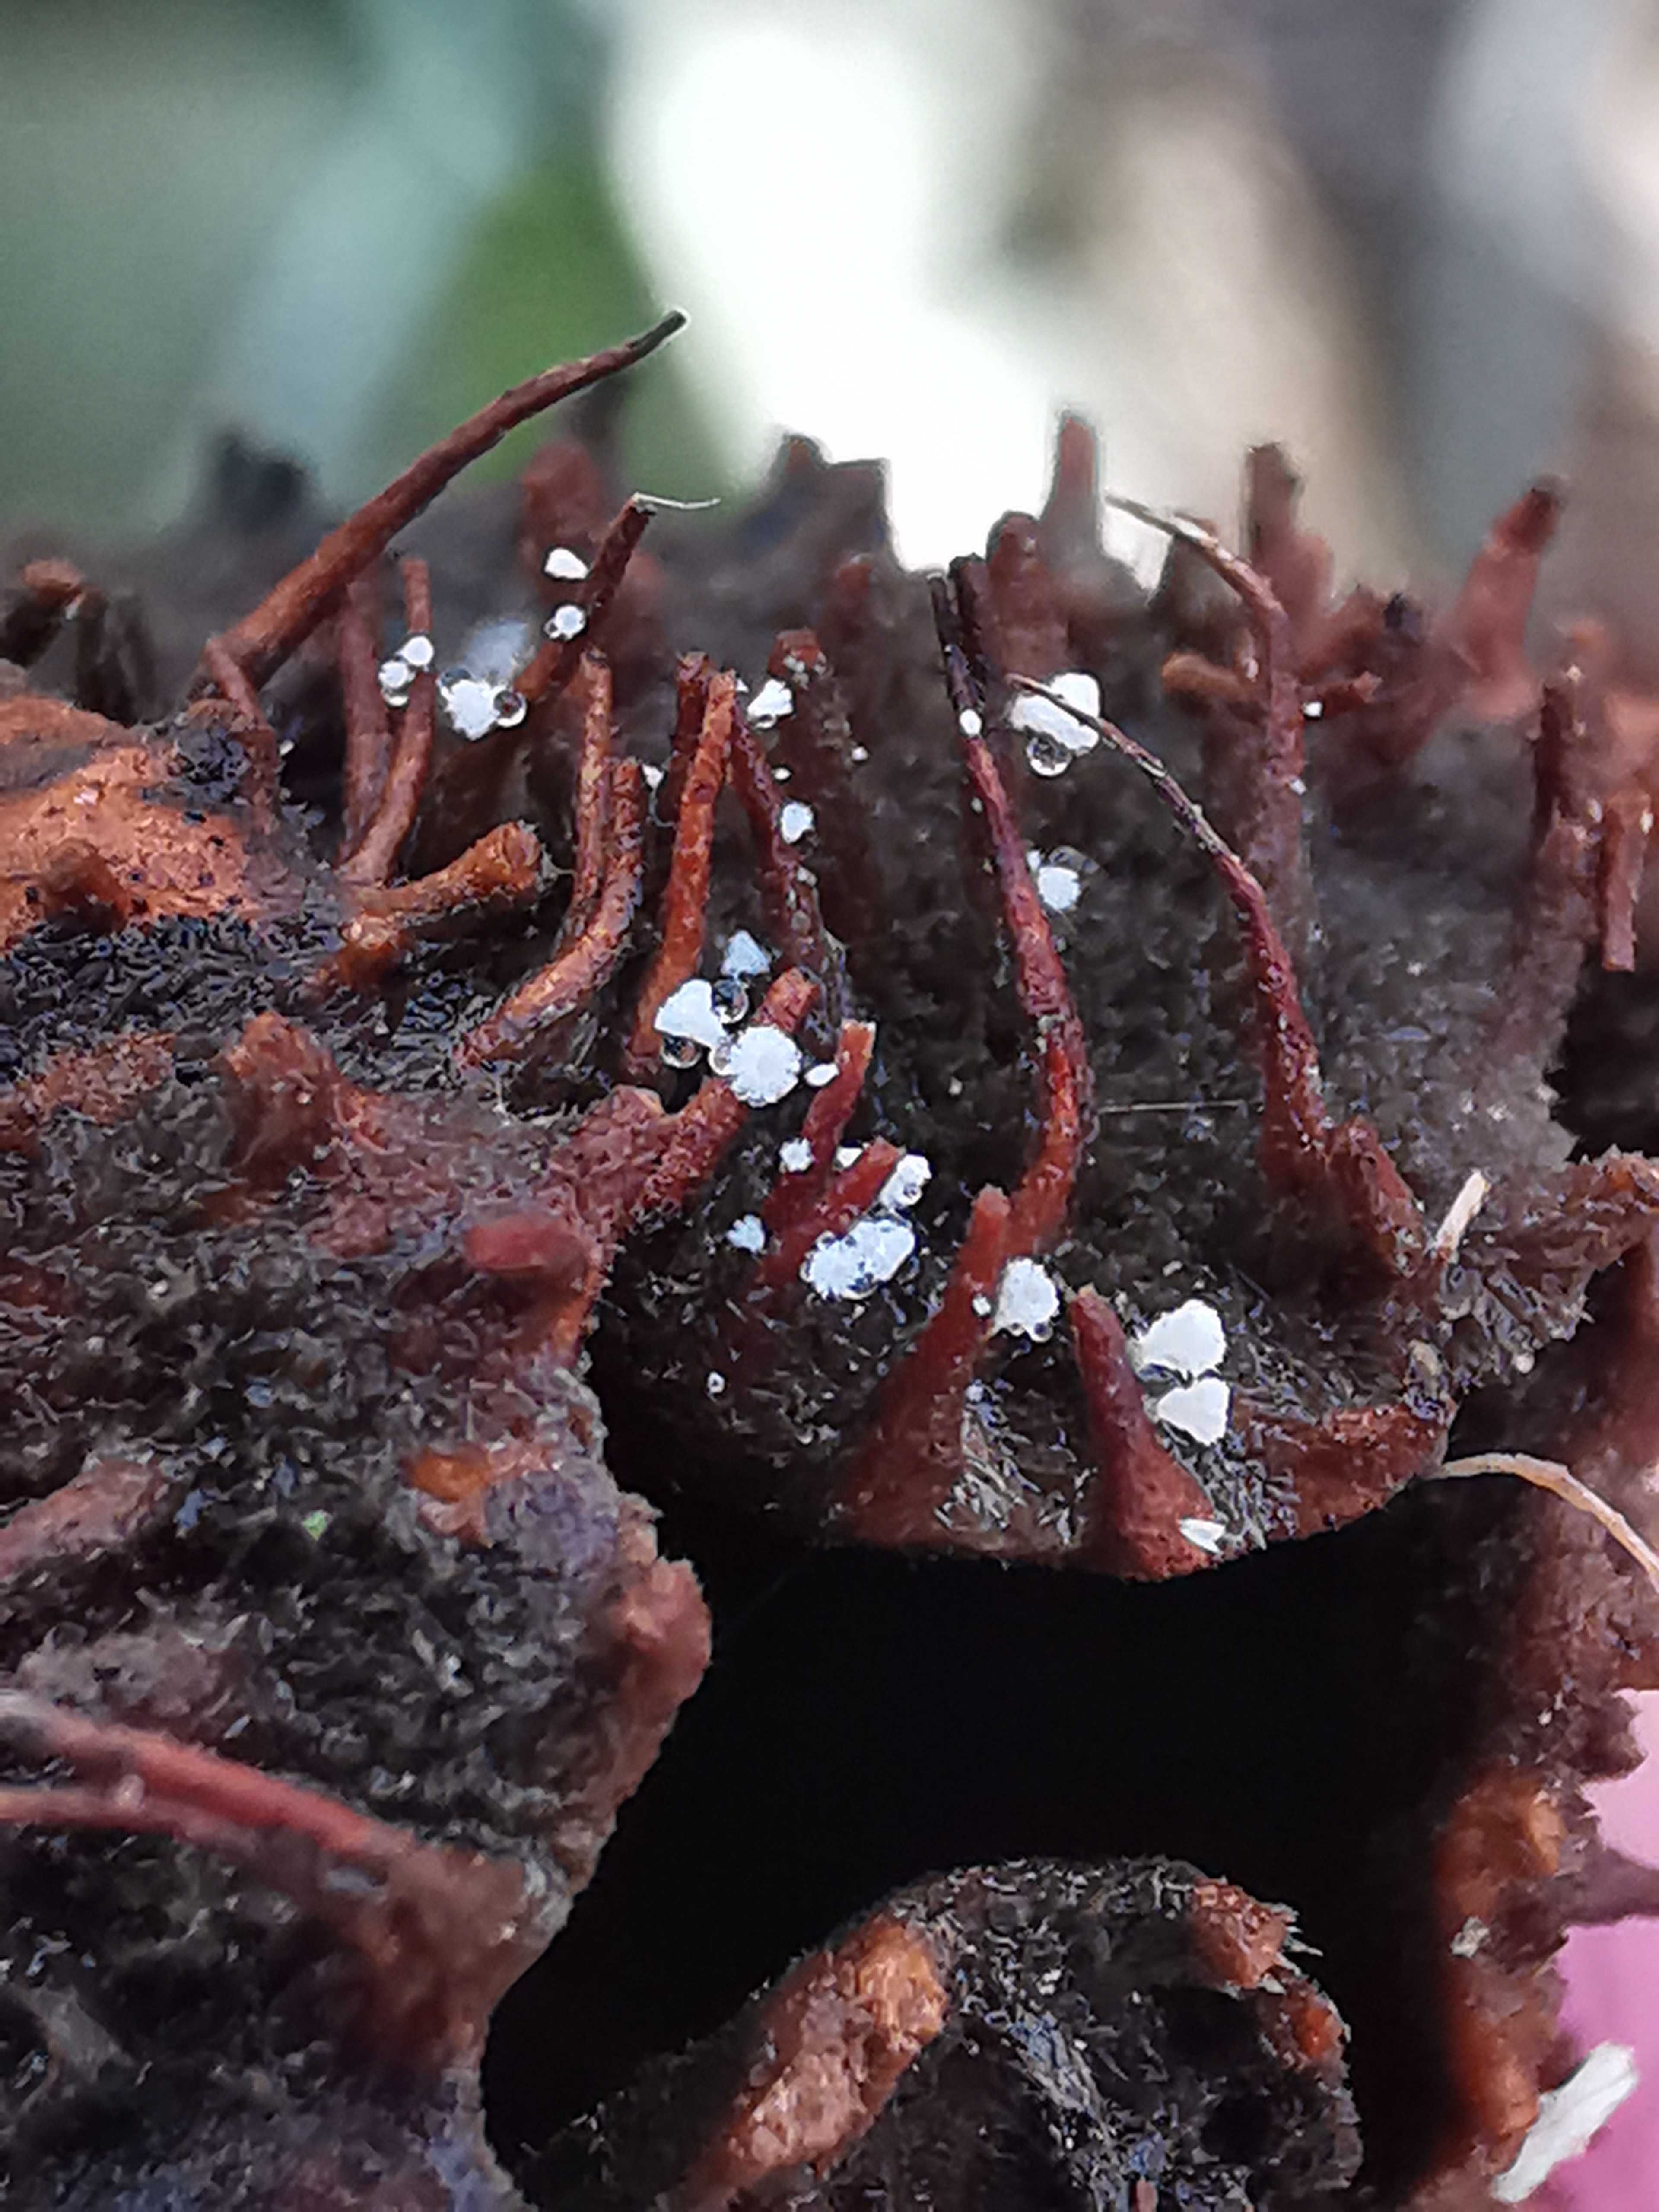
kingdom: Fungi
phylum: Ascomycota
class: Leotiomycetes
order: Helotiales
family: Lachnaceae
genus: Lachnum
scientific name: Lachnum virgineum
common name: jomfru-frynseskive
